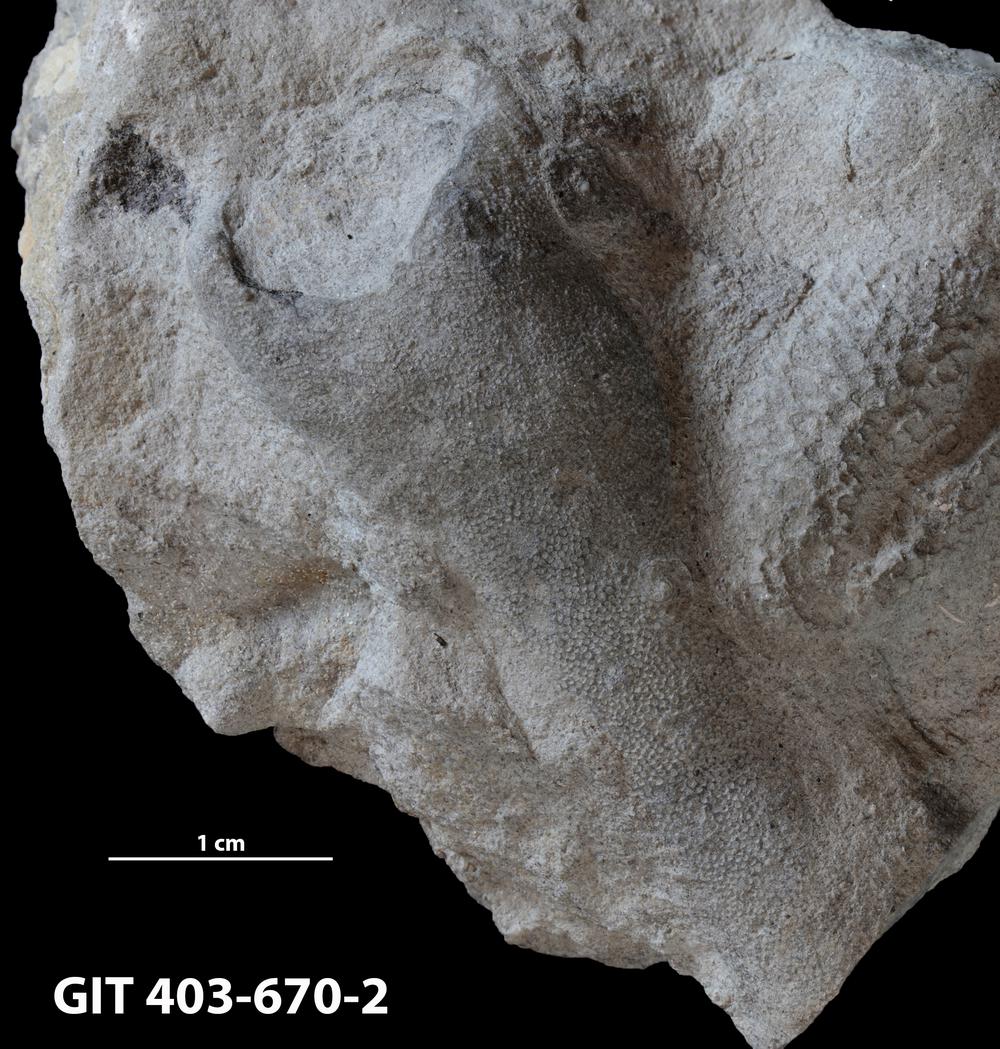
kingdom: Animalia
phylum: Bryozoa
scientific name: Bryozoa
